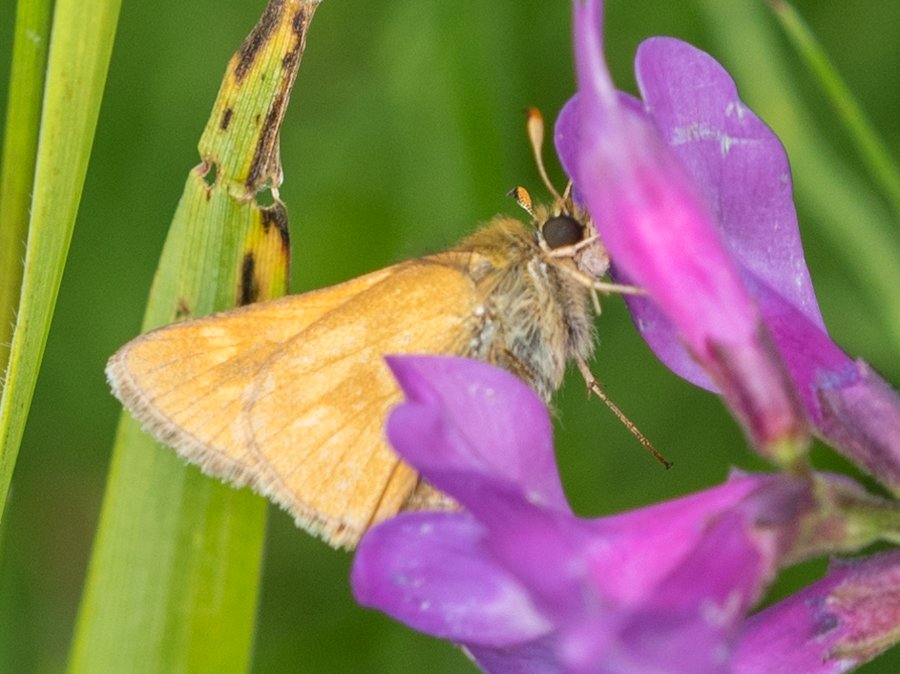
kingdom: Animalia
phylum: Arthropoda
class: Insecta
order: Lepidoptera
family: Hesperiidae
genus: Polites
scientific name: Polites
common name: Long Dash Skipper
